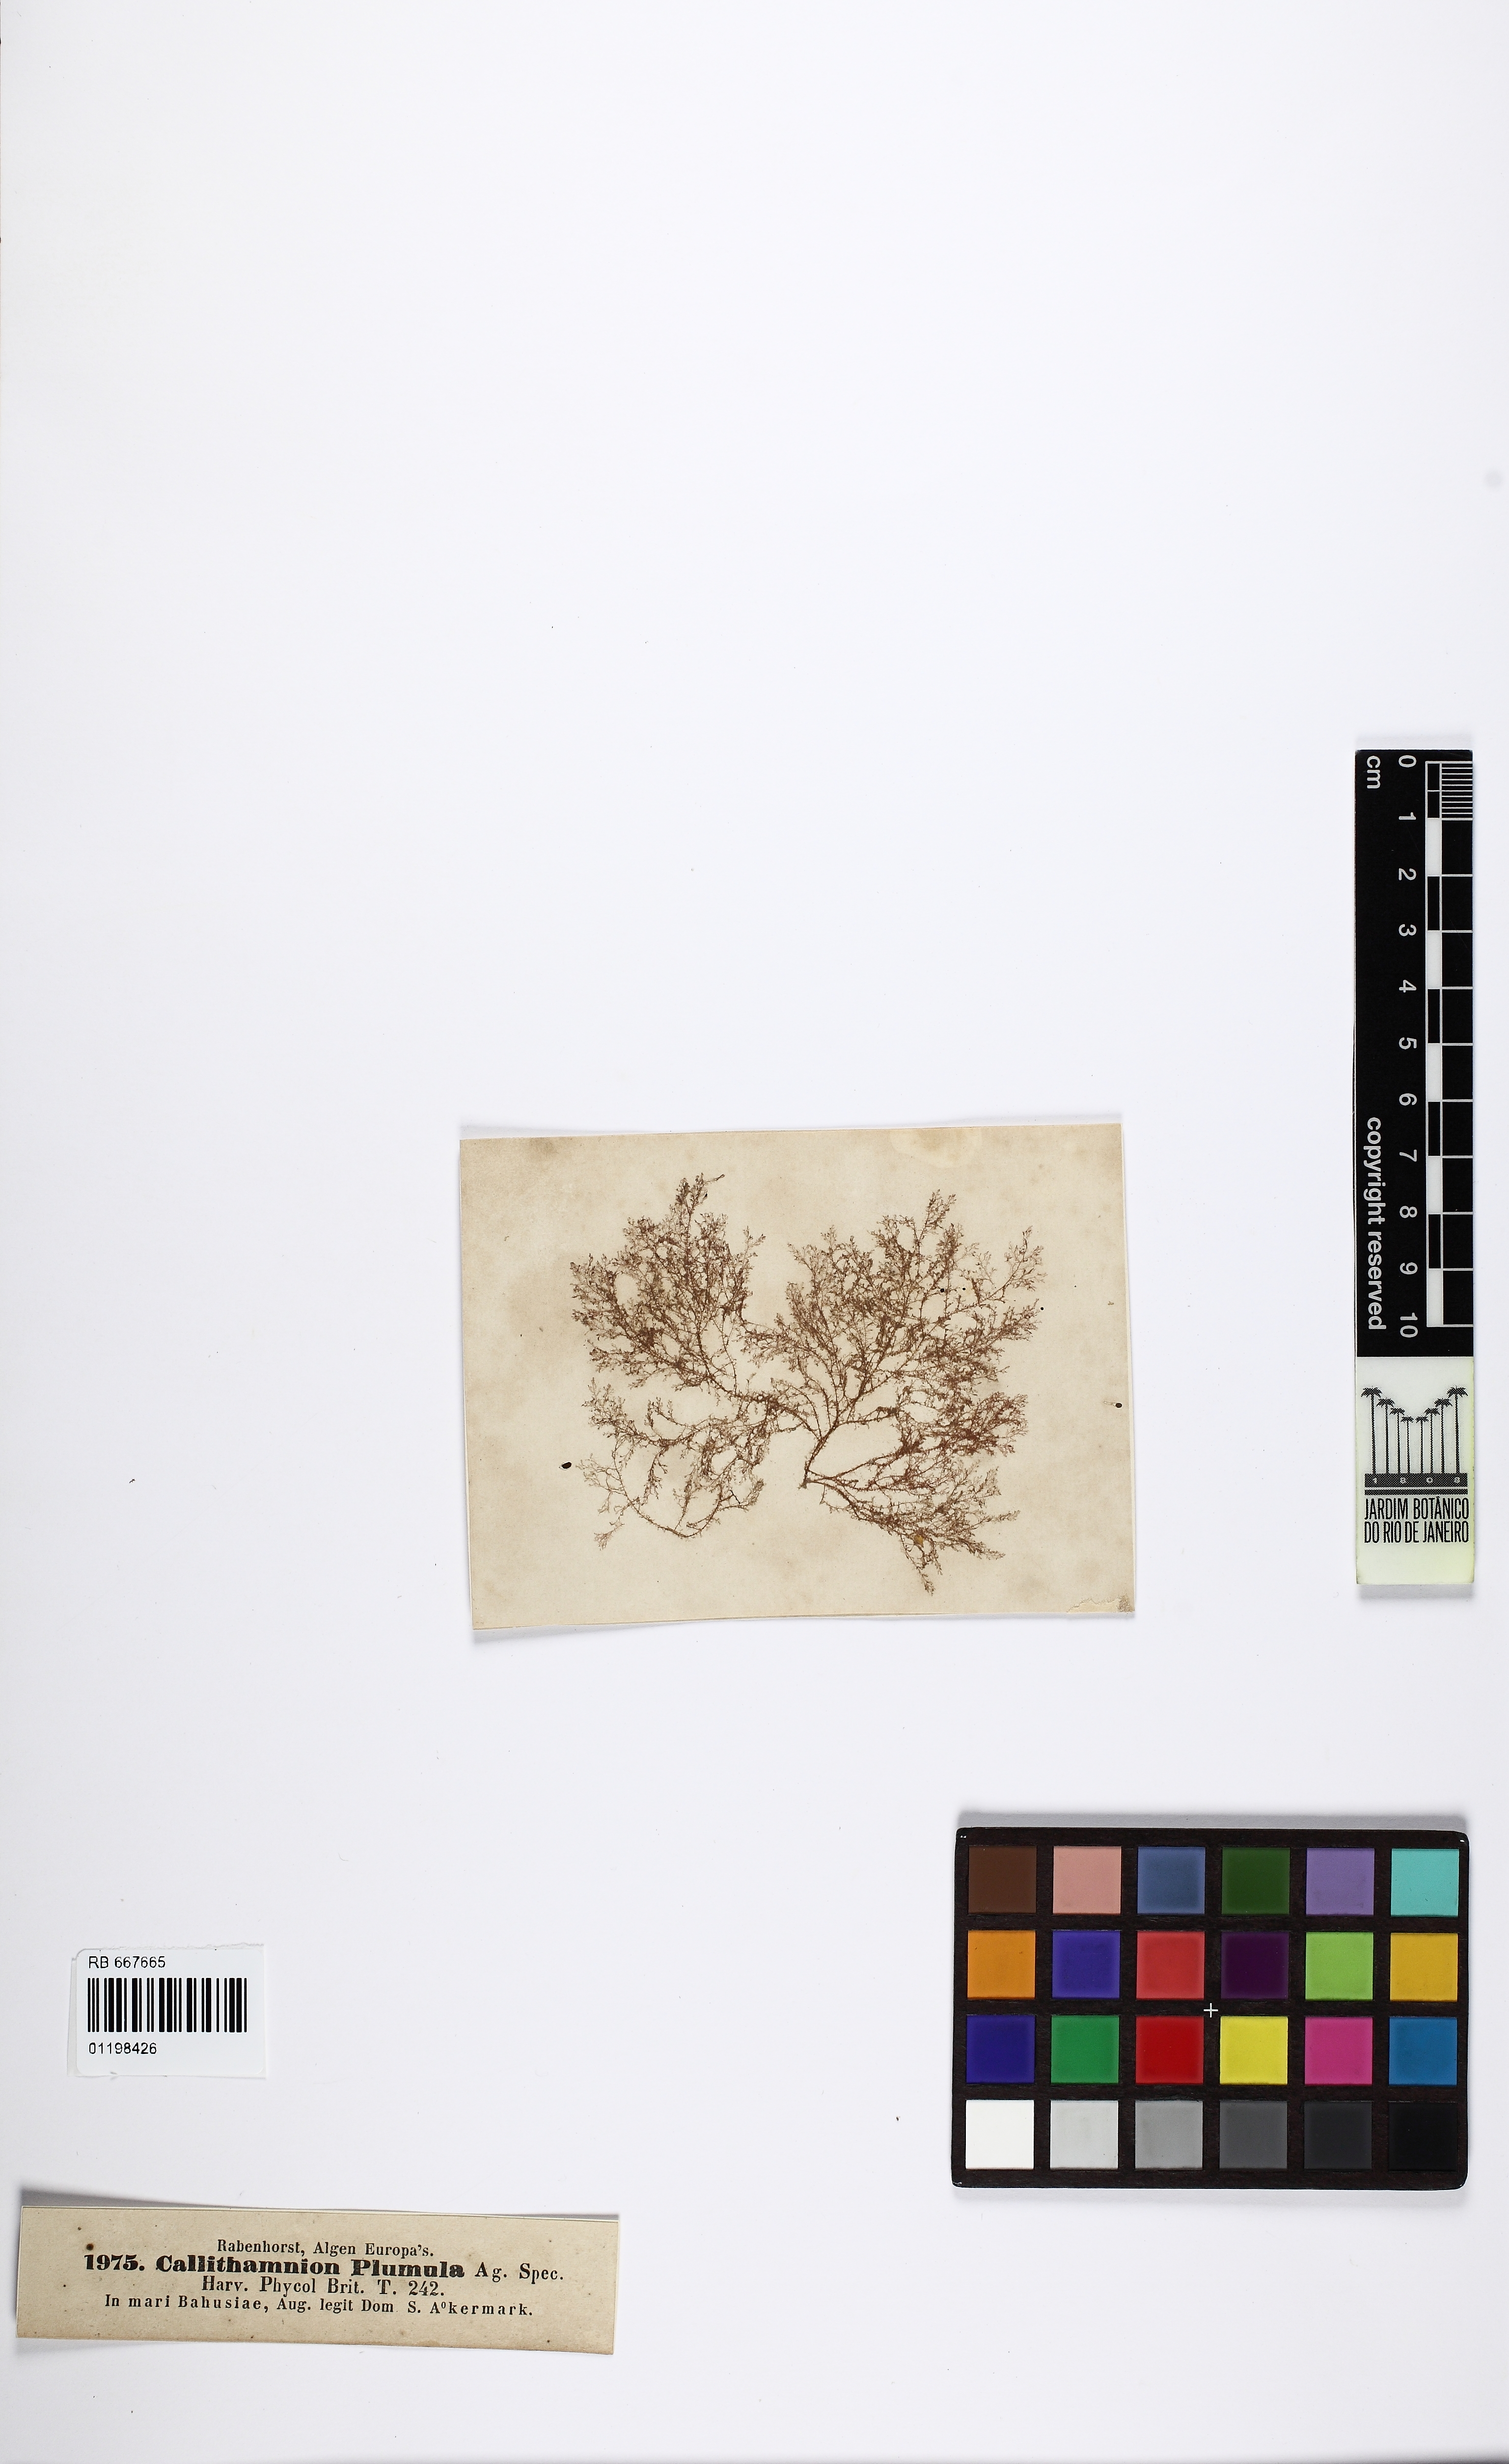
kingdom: Plantae
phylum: Rhodophyta
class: Florideophyceae
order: Ceramiales
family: Ceramiaceae
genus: Pterothamnion
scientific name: Pterothamnion plumula
